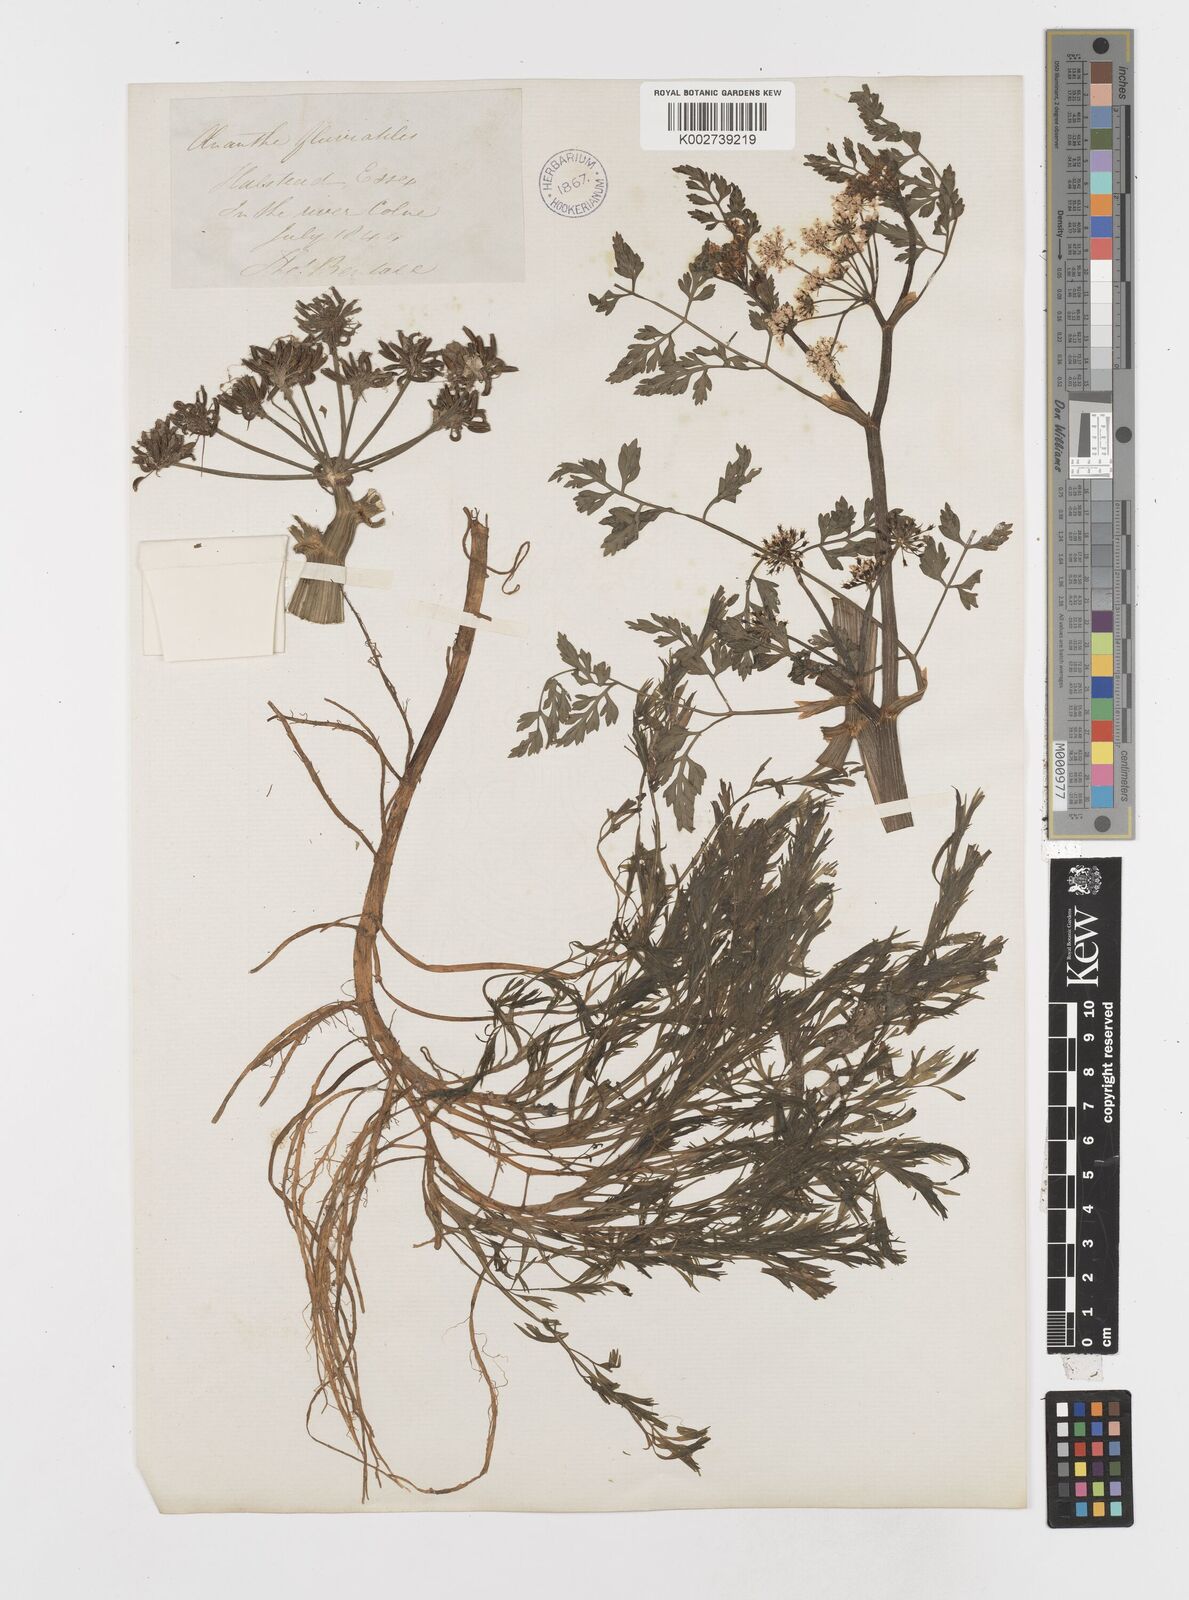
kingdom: Plantae
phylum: Tracheophyta
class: Magnoliopsida
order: Apiales
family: Apiaceae
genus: Oenanthe
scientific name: Oenanthe fluviatilis
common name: River water-dropwort
